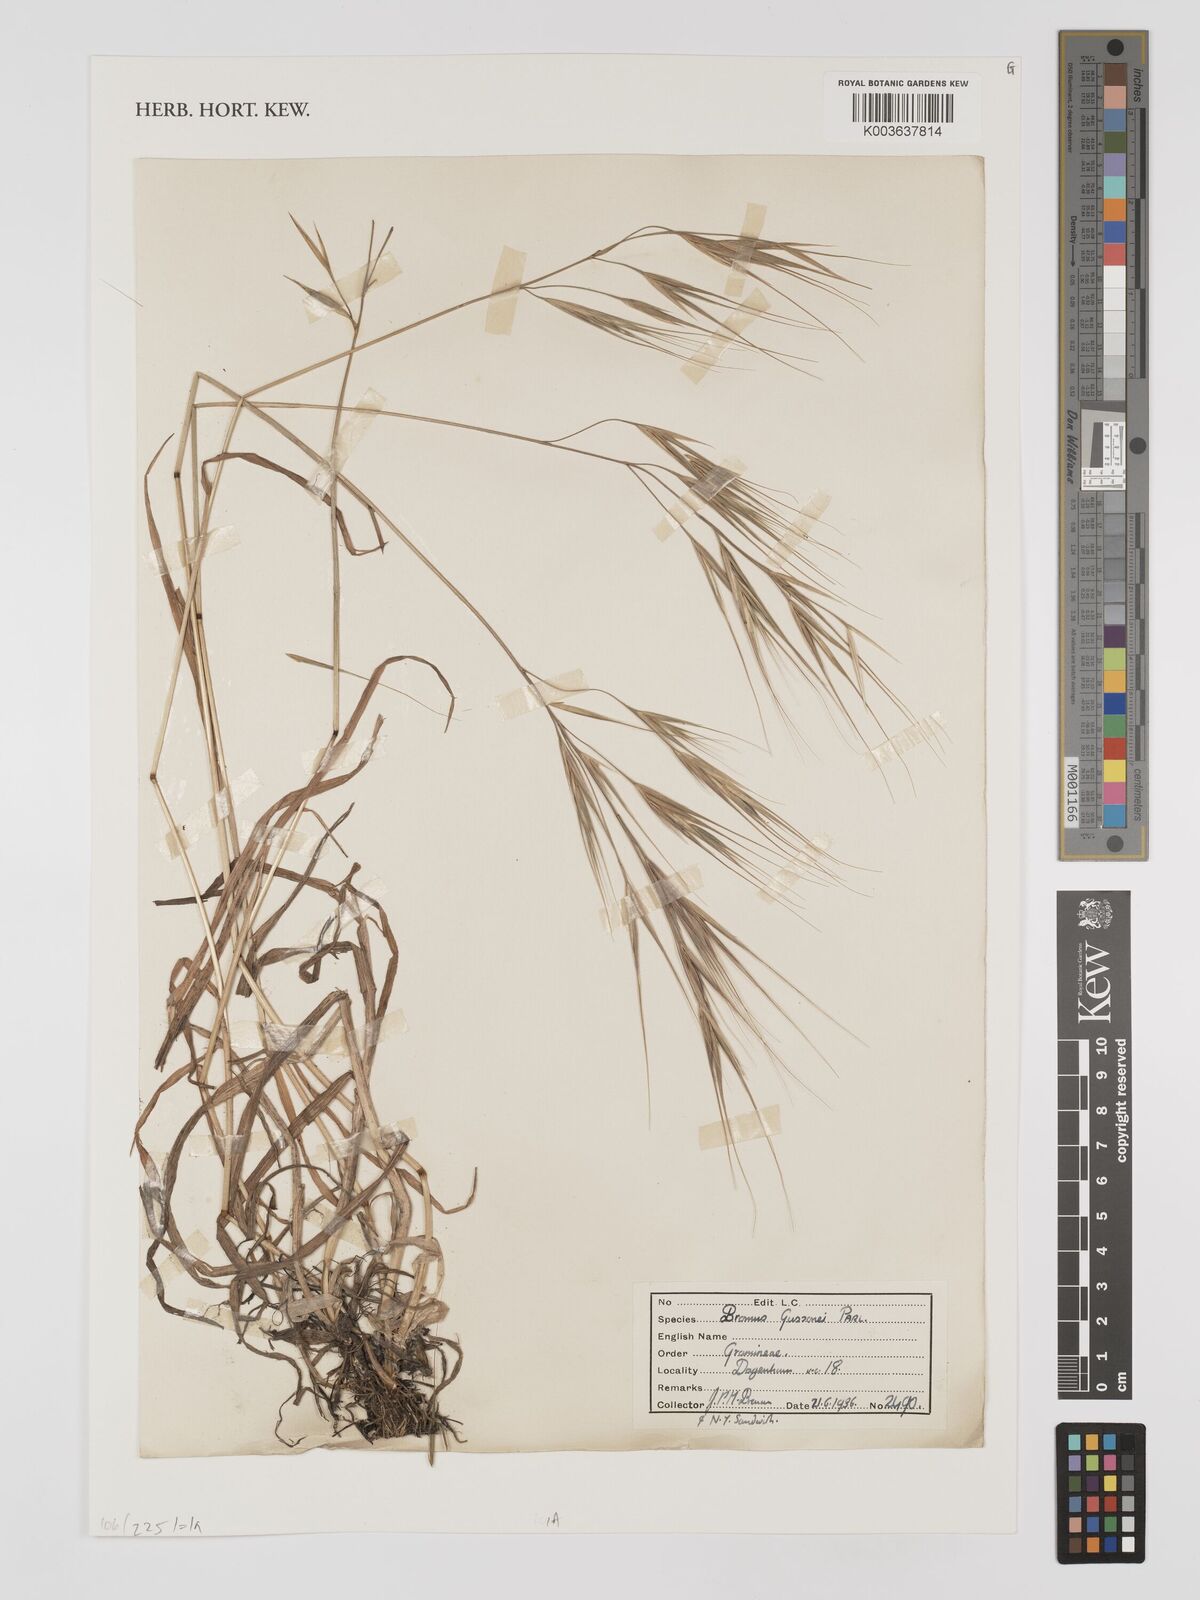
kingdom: Plantae
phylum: Tracheophyta
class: Liliopsida
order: Poales
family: Poaceae
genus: Bromus
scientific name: Bromus
